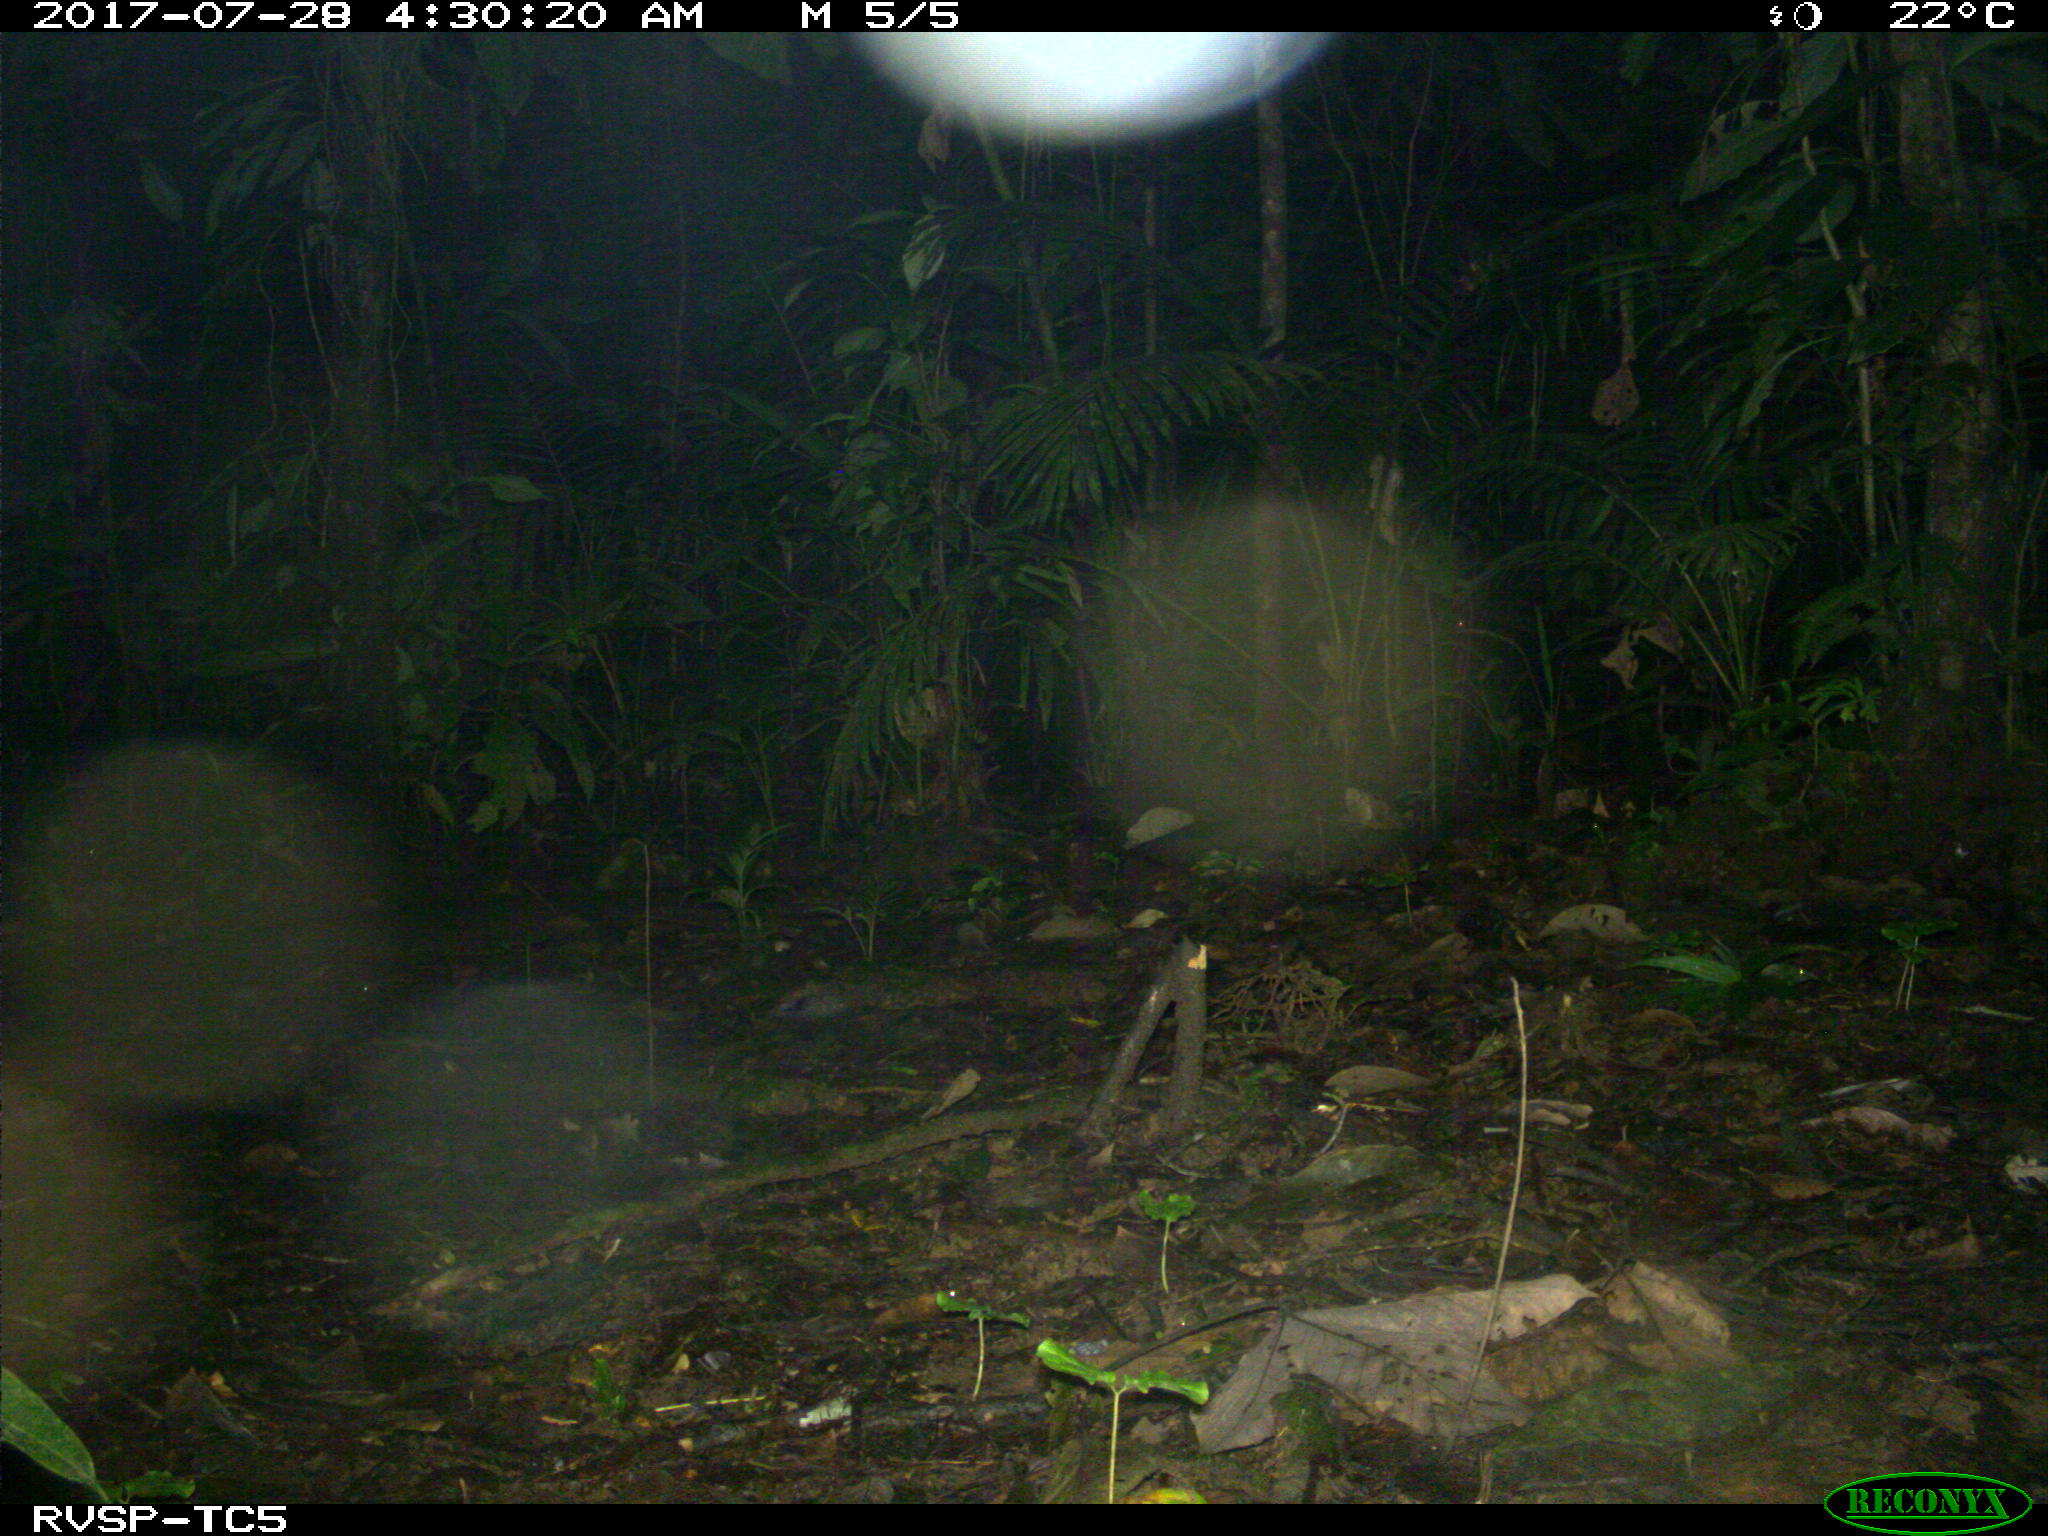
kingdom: Animalia
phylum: Chordata
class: Mammalia
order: Rodentia
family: Cuniculidae
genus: Cuniculus
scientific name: Cuniculus paca
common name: Lowland paca
